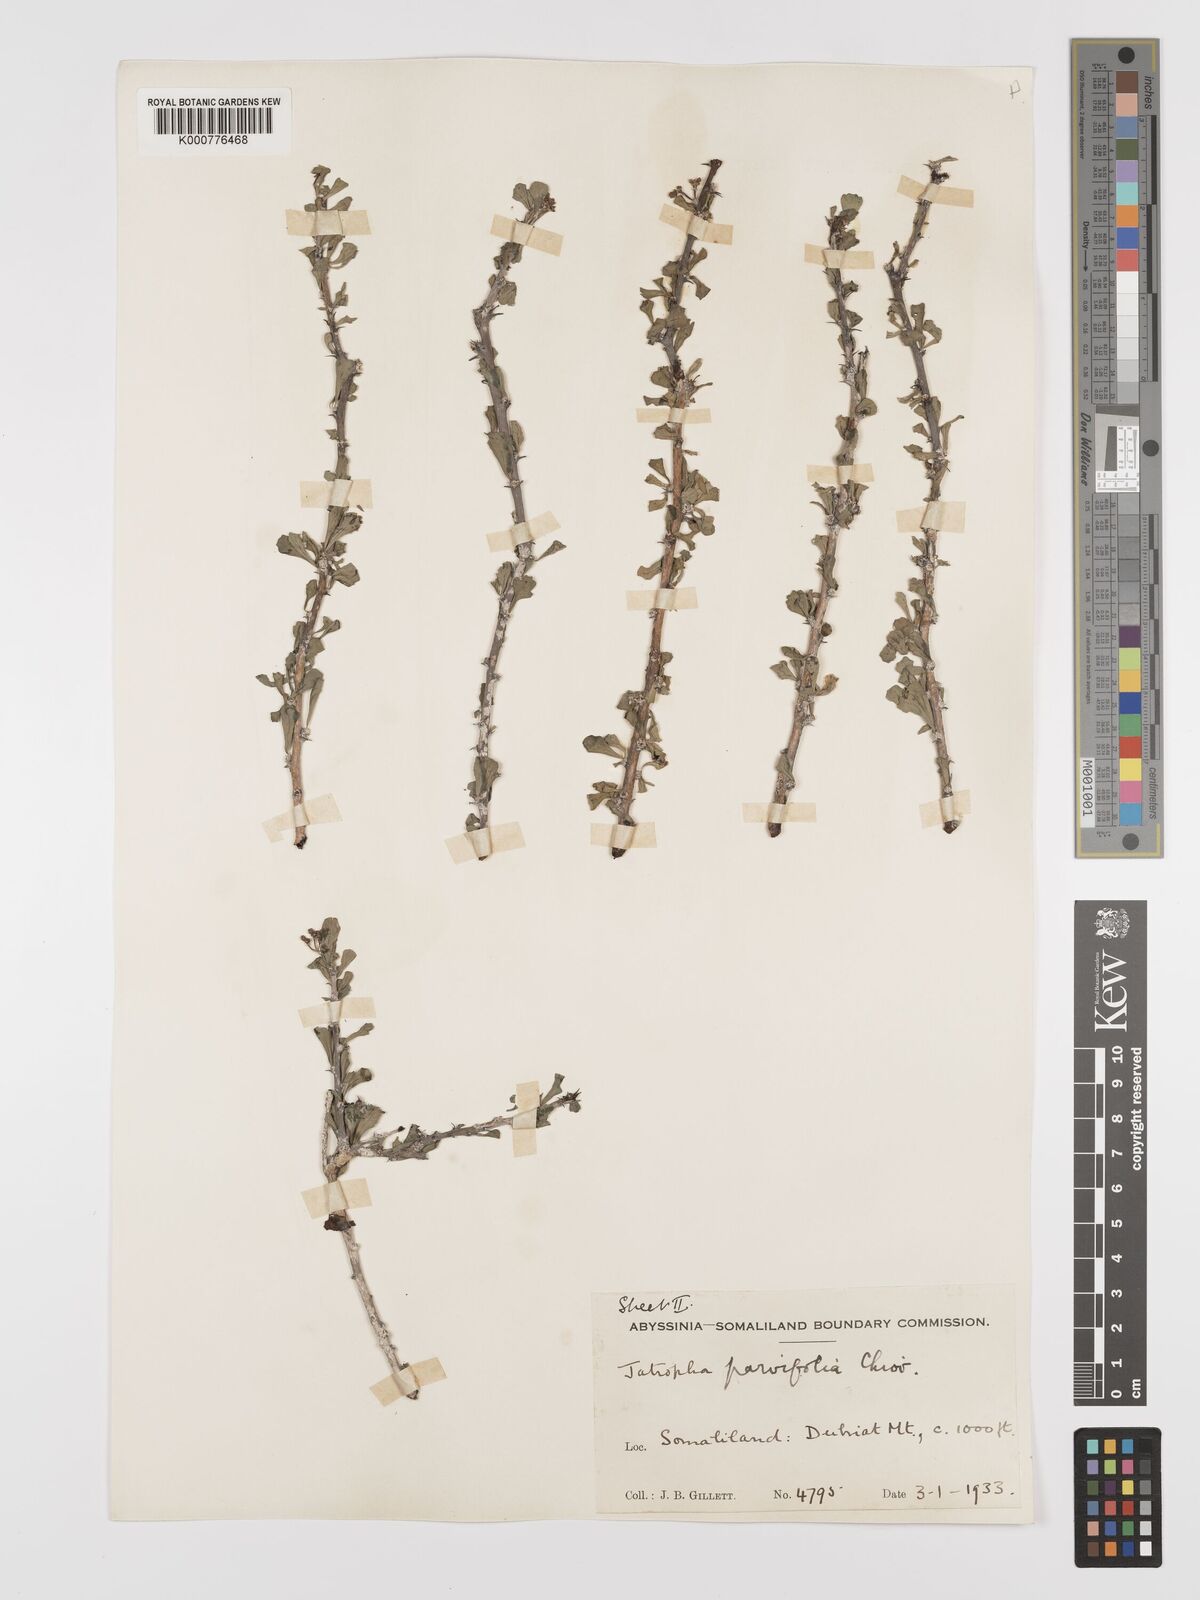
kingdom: Plantae
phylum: Tracheophyta
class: Magnoliopsida
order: Malpighiales
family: Euphorbiaceae
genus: Jatropha
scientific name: Jatropha rivae
